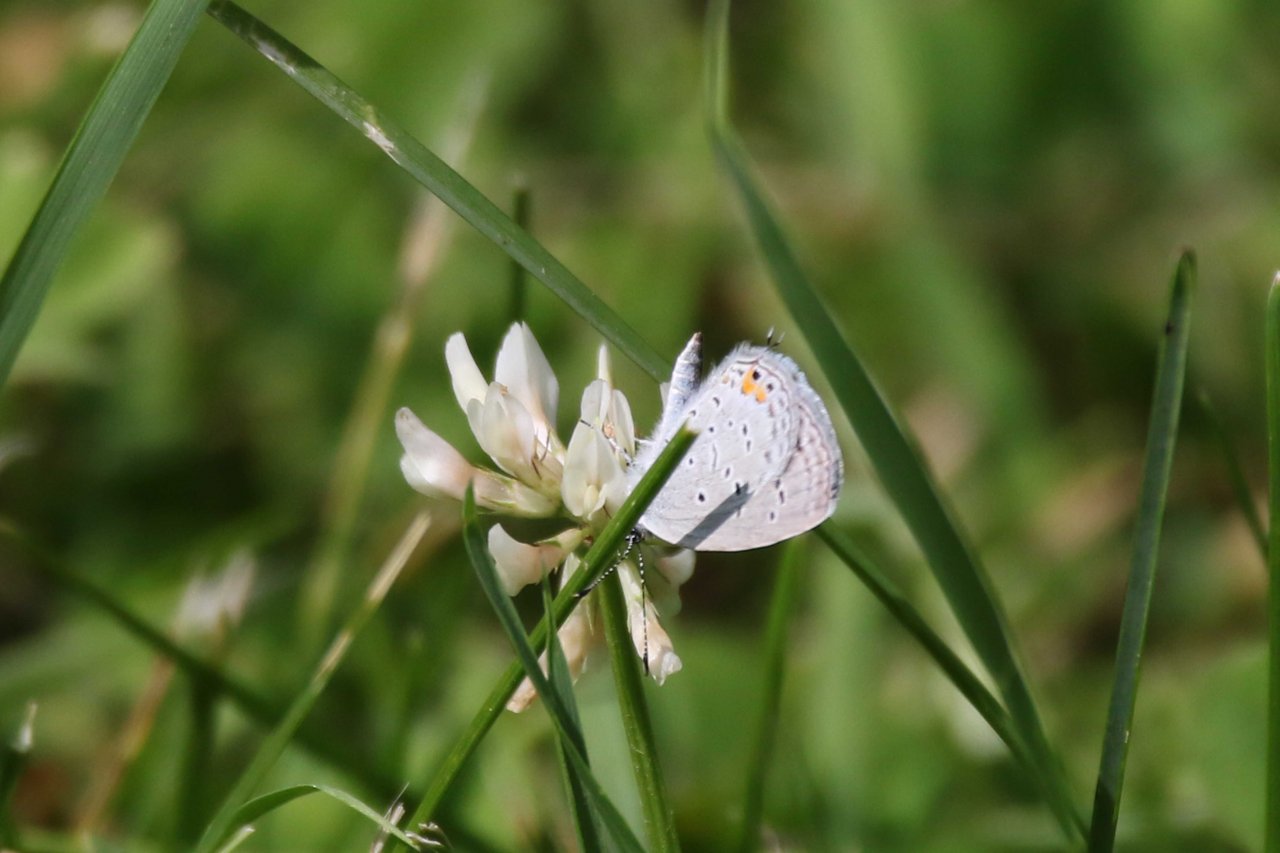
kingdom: Animalia
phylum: Arthropoda
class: Insecta
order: Lepidoptera
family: Lycaenidae
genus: Elkalyce
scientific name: Elkalyce comyntas
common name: Eastern Tailed-Blue
